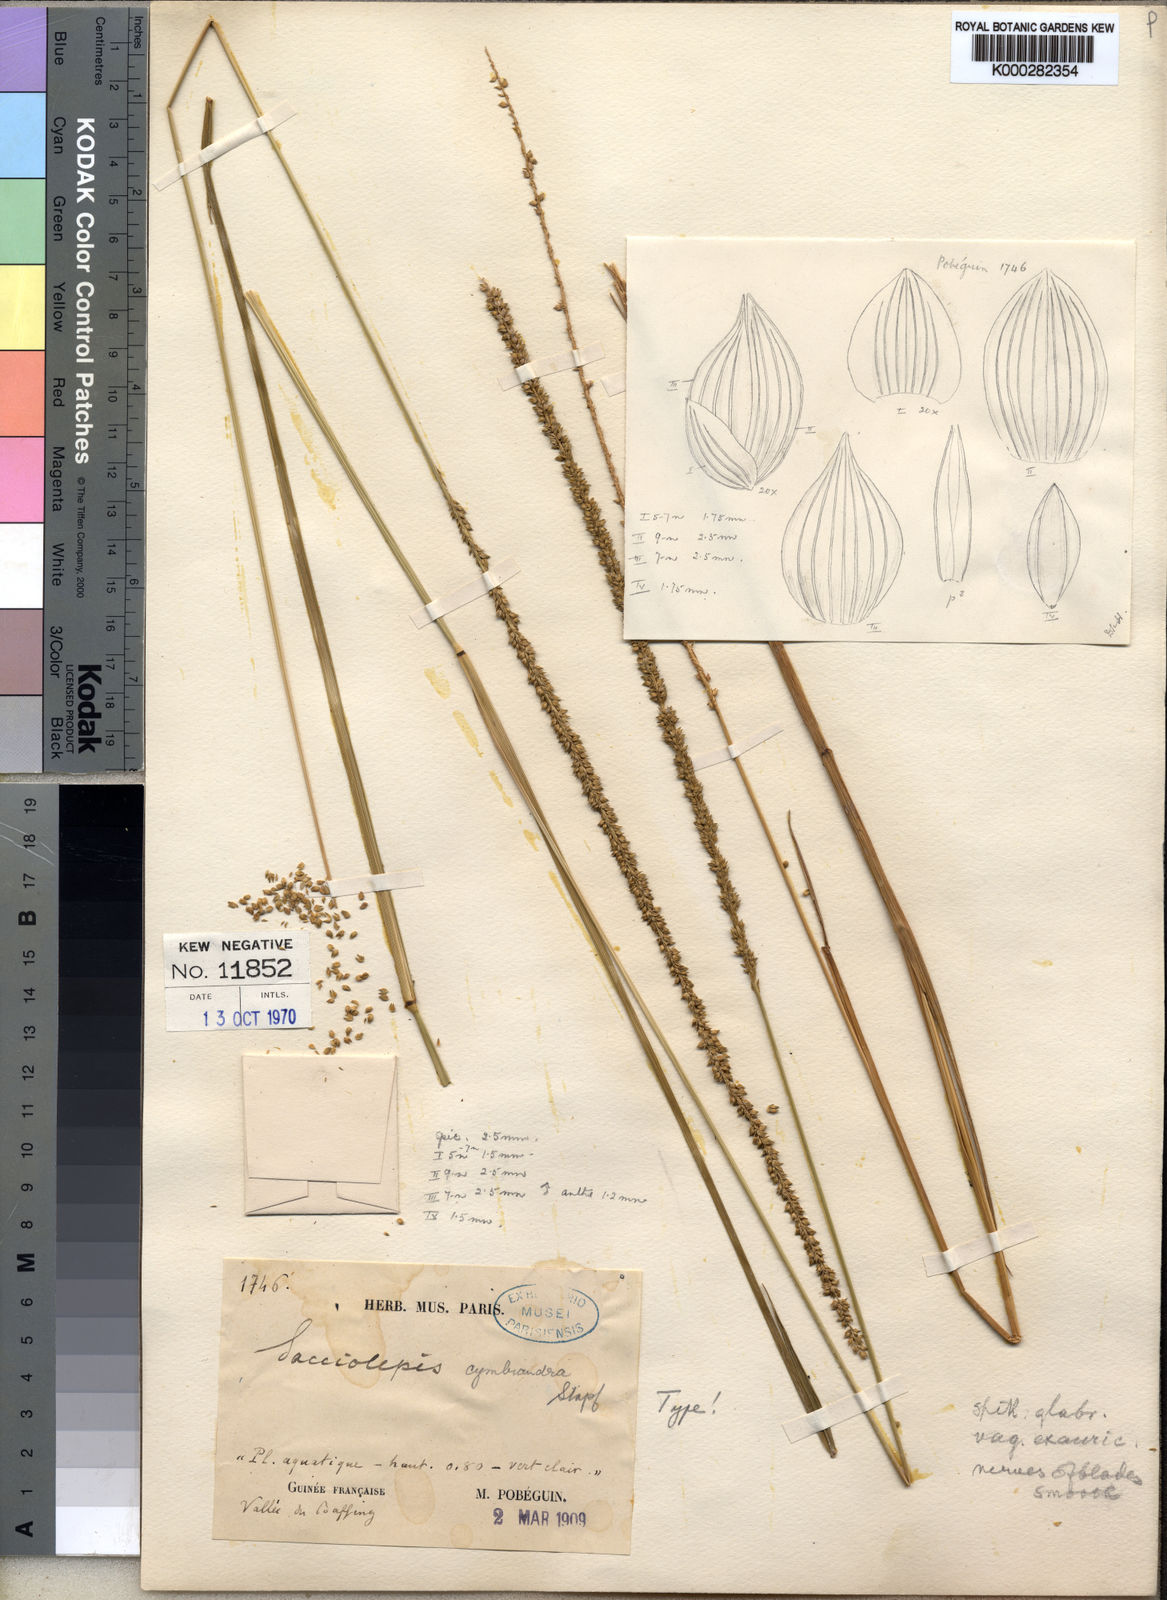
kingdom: Plantae
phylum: Tracheophyta
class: Liliopsida
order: Poales
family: Poaceae
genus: Sacciolepis
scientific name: Sacciolepis cymbiandra
